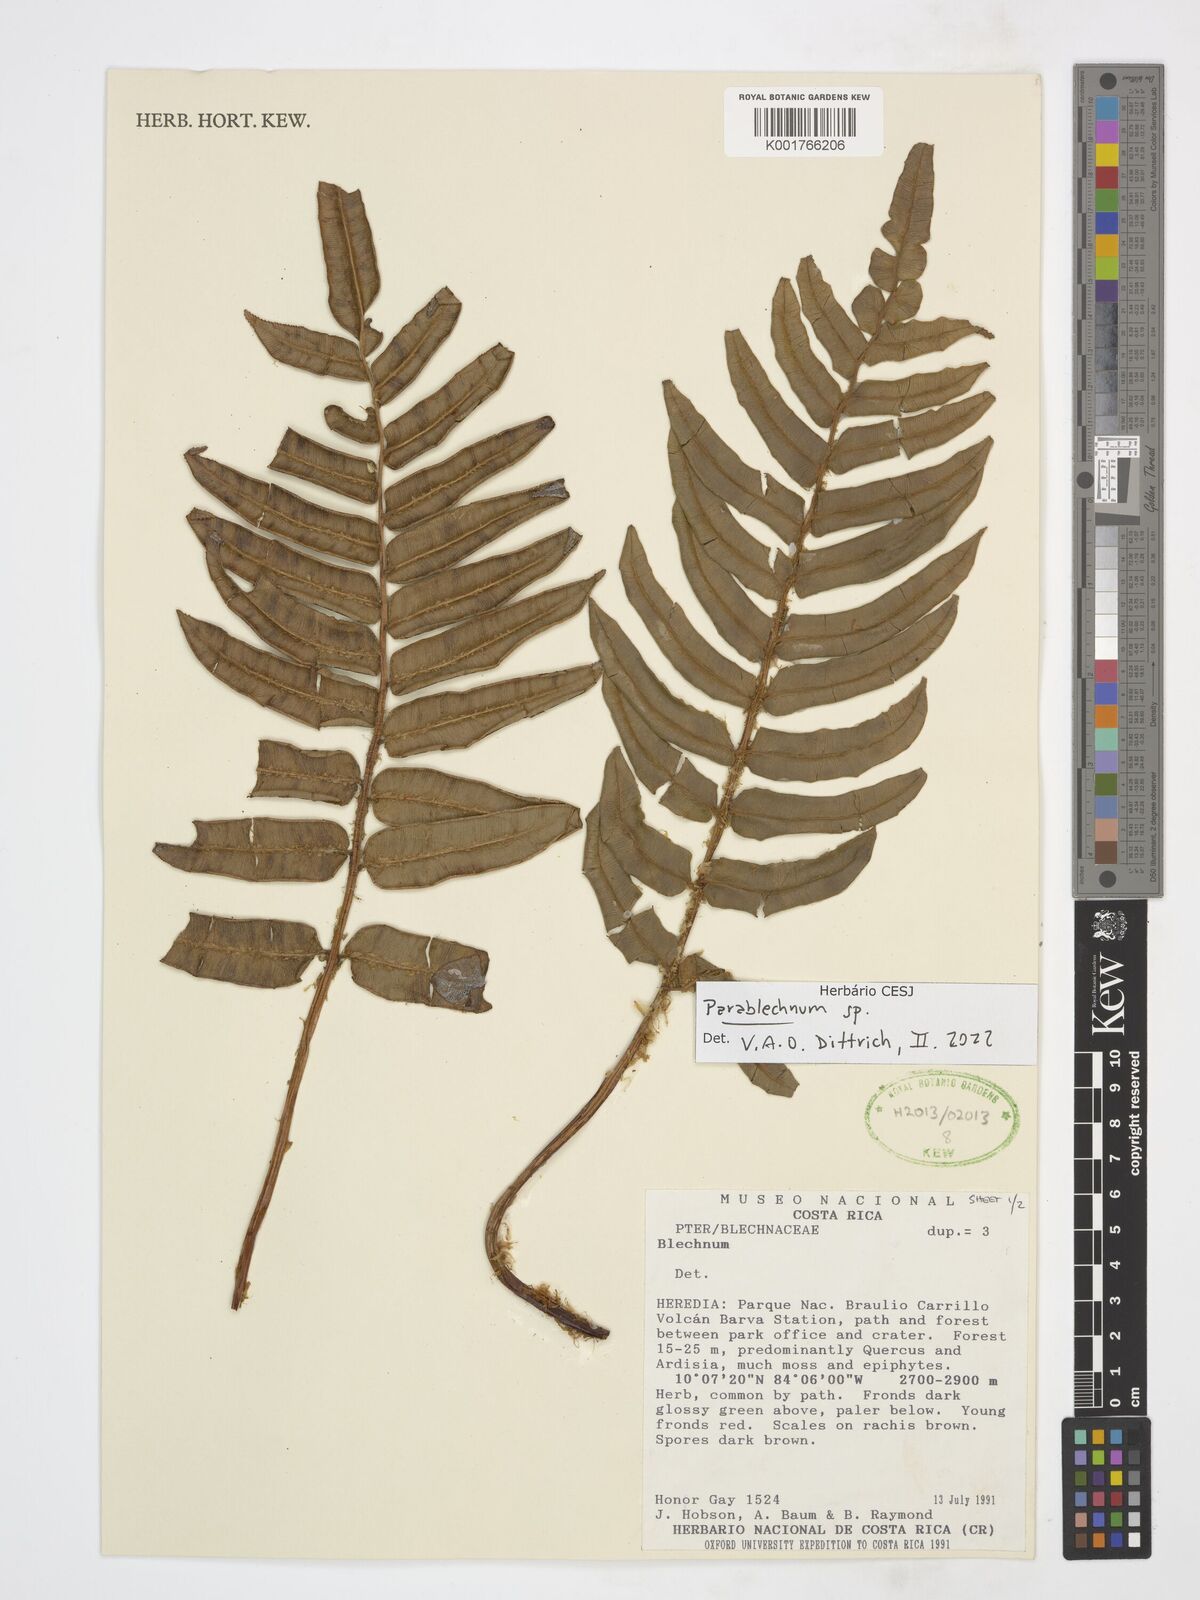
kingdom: Plantae
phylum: Tracheophyta
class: Polypodiopsida
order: Polypodiales
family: Blechnaceae
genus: Parablechnum
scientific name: Parablechnum
